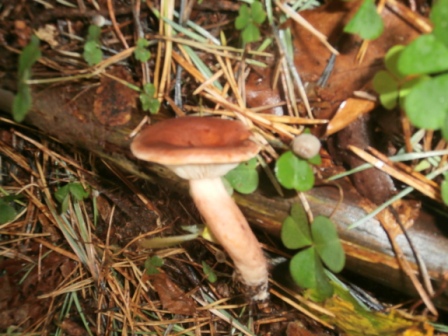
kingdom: Fungi
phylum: Basidiomycota
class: Agaricomycetes
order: Russulales
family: Russulaceae
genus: Lactarius
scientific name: Lactarius rufus
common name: rødbrun mælkehat
